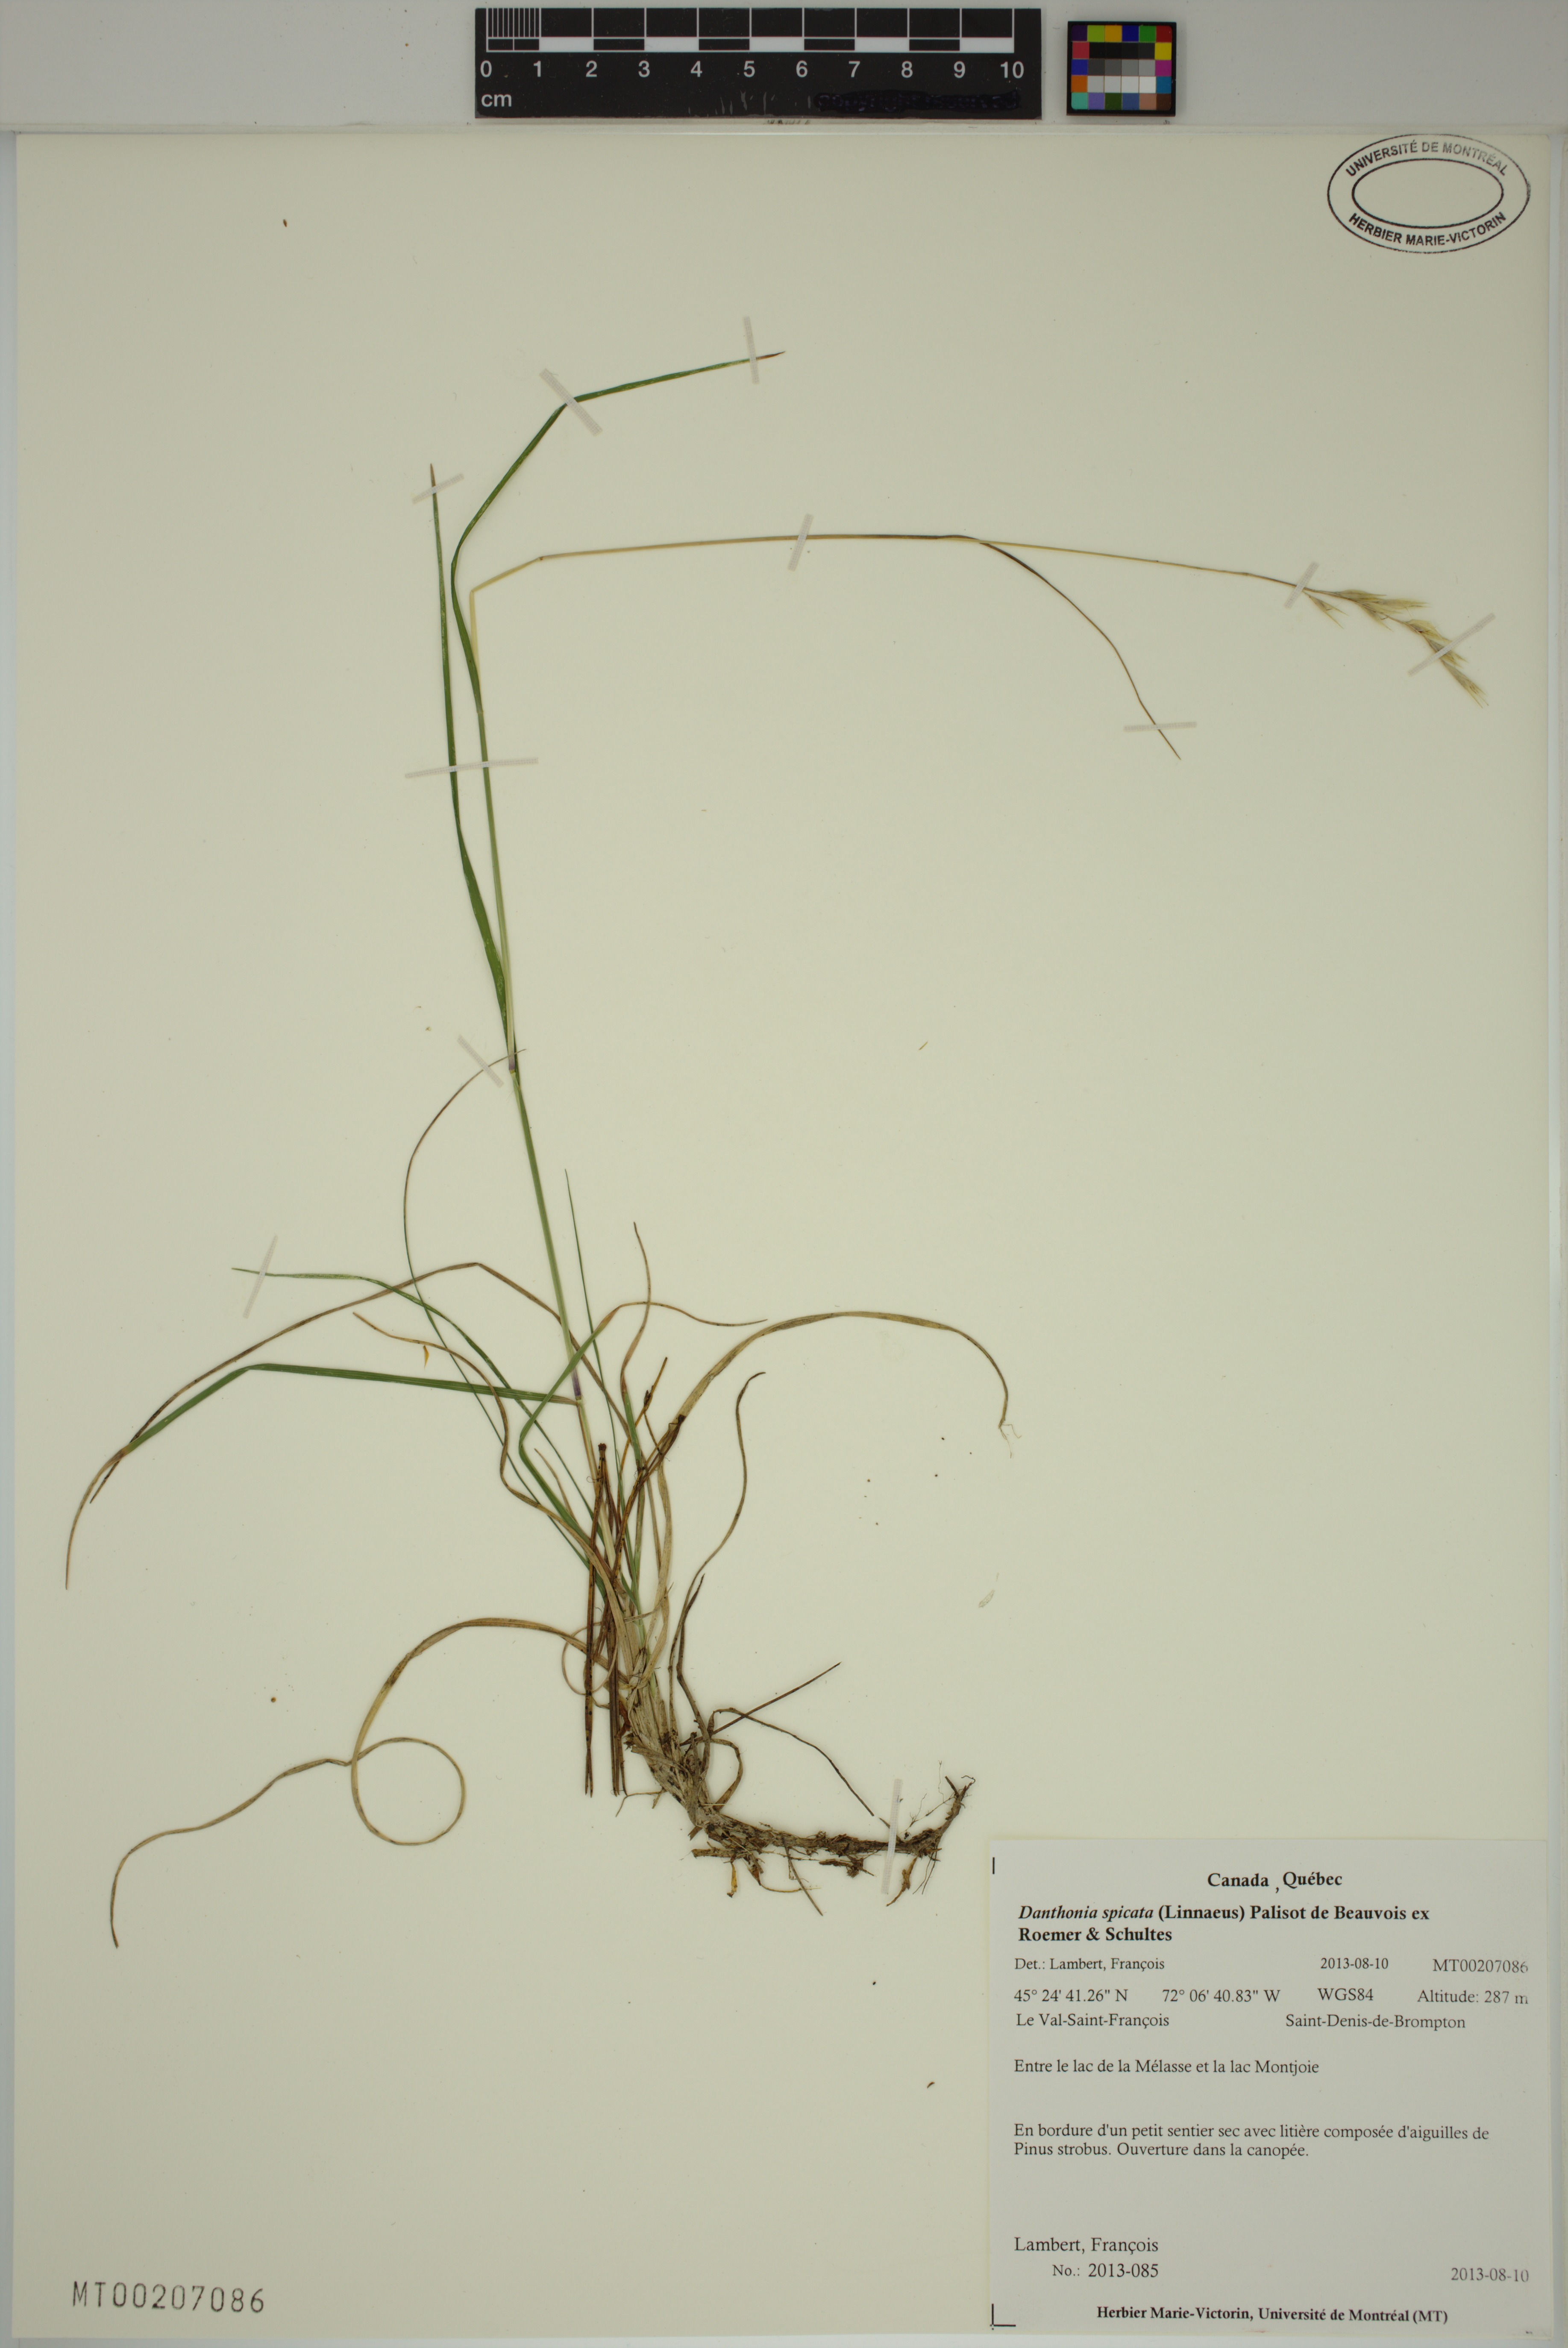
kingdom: Plantae
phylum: Tracheophyta
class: Liliopsida
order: Poales
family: Poaceae
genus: Danthonia
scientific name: Danthonia spicata
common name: Common wild oatgrass
